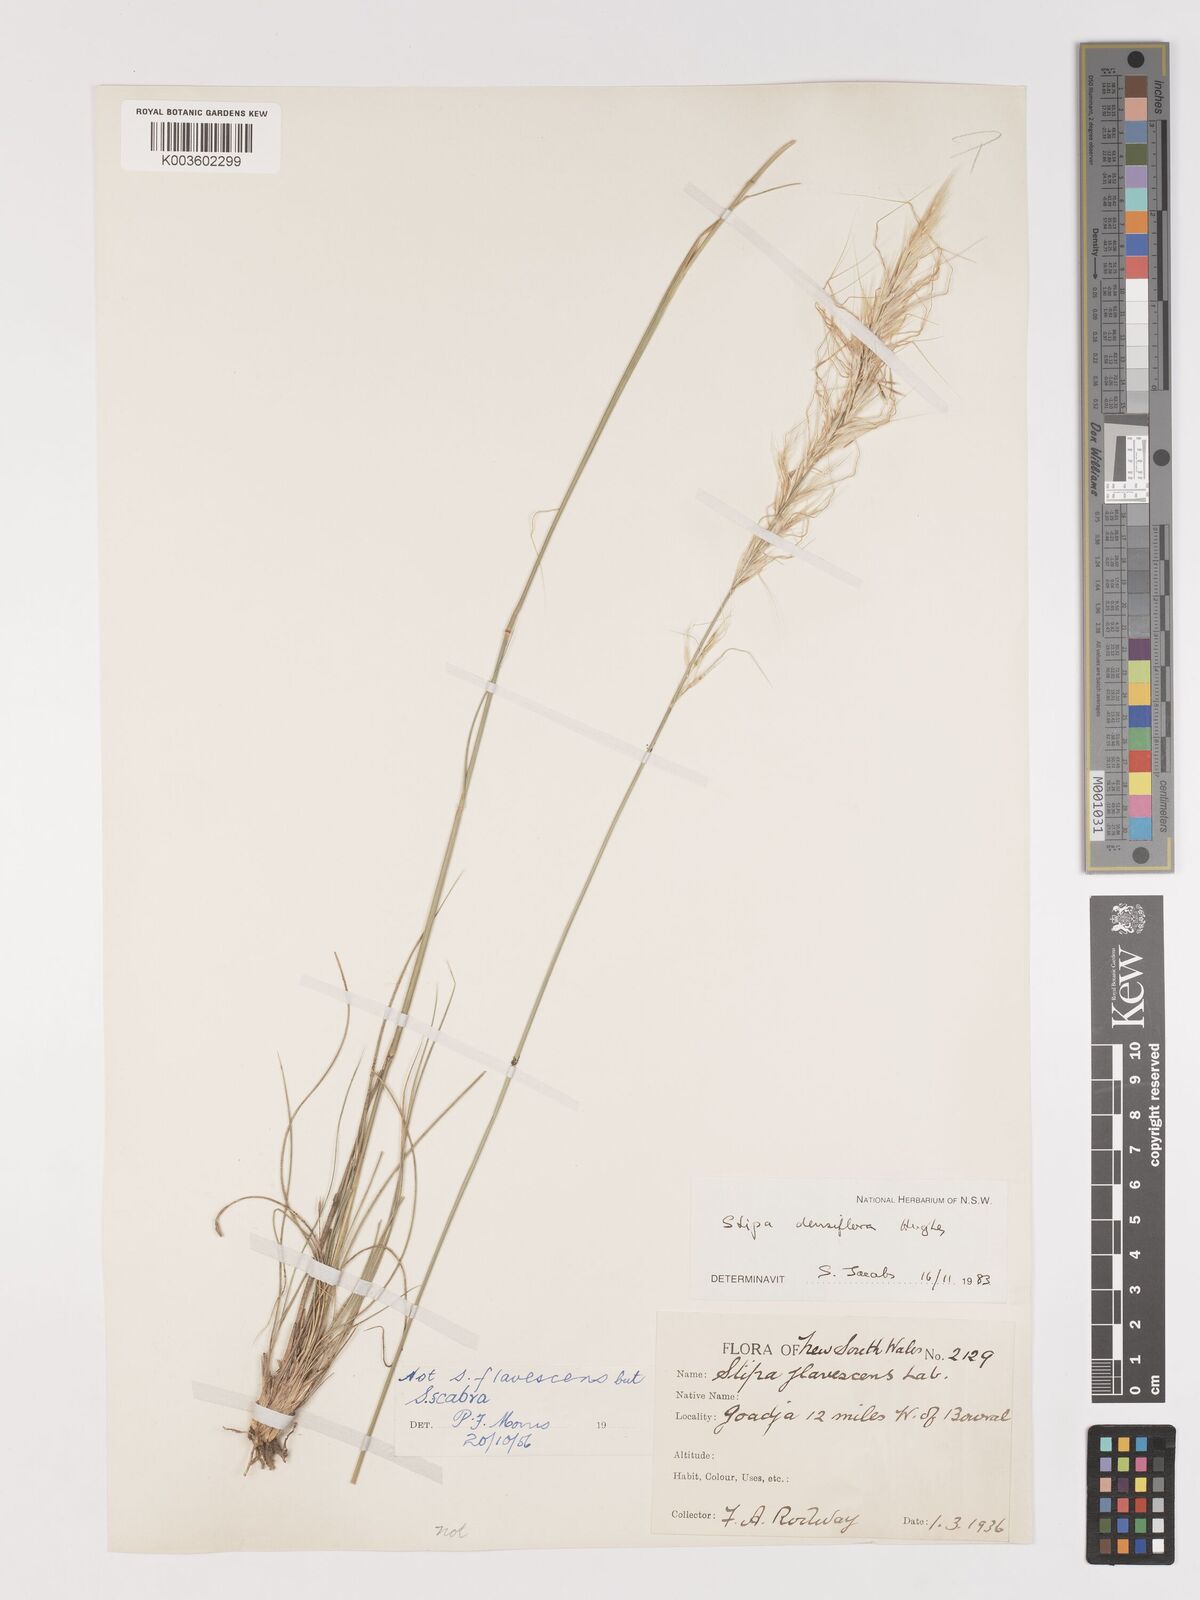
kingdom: Plantae
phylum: Tracheophyta
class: Liliopsida
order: Poales
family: Poaceae
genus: Stipa
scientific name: Stipa
